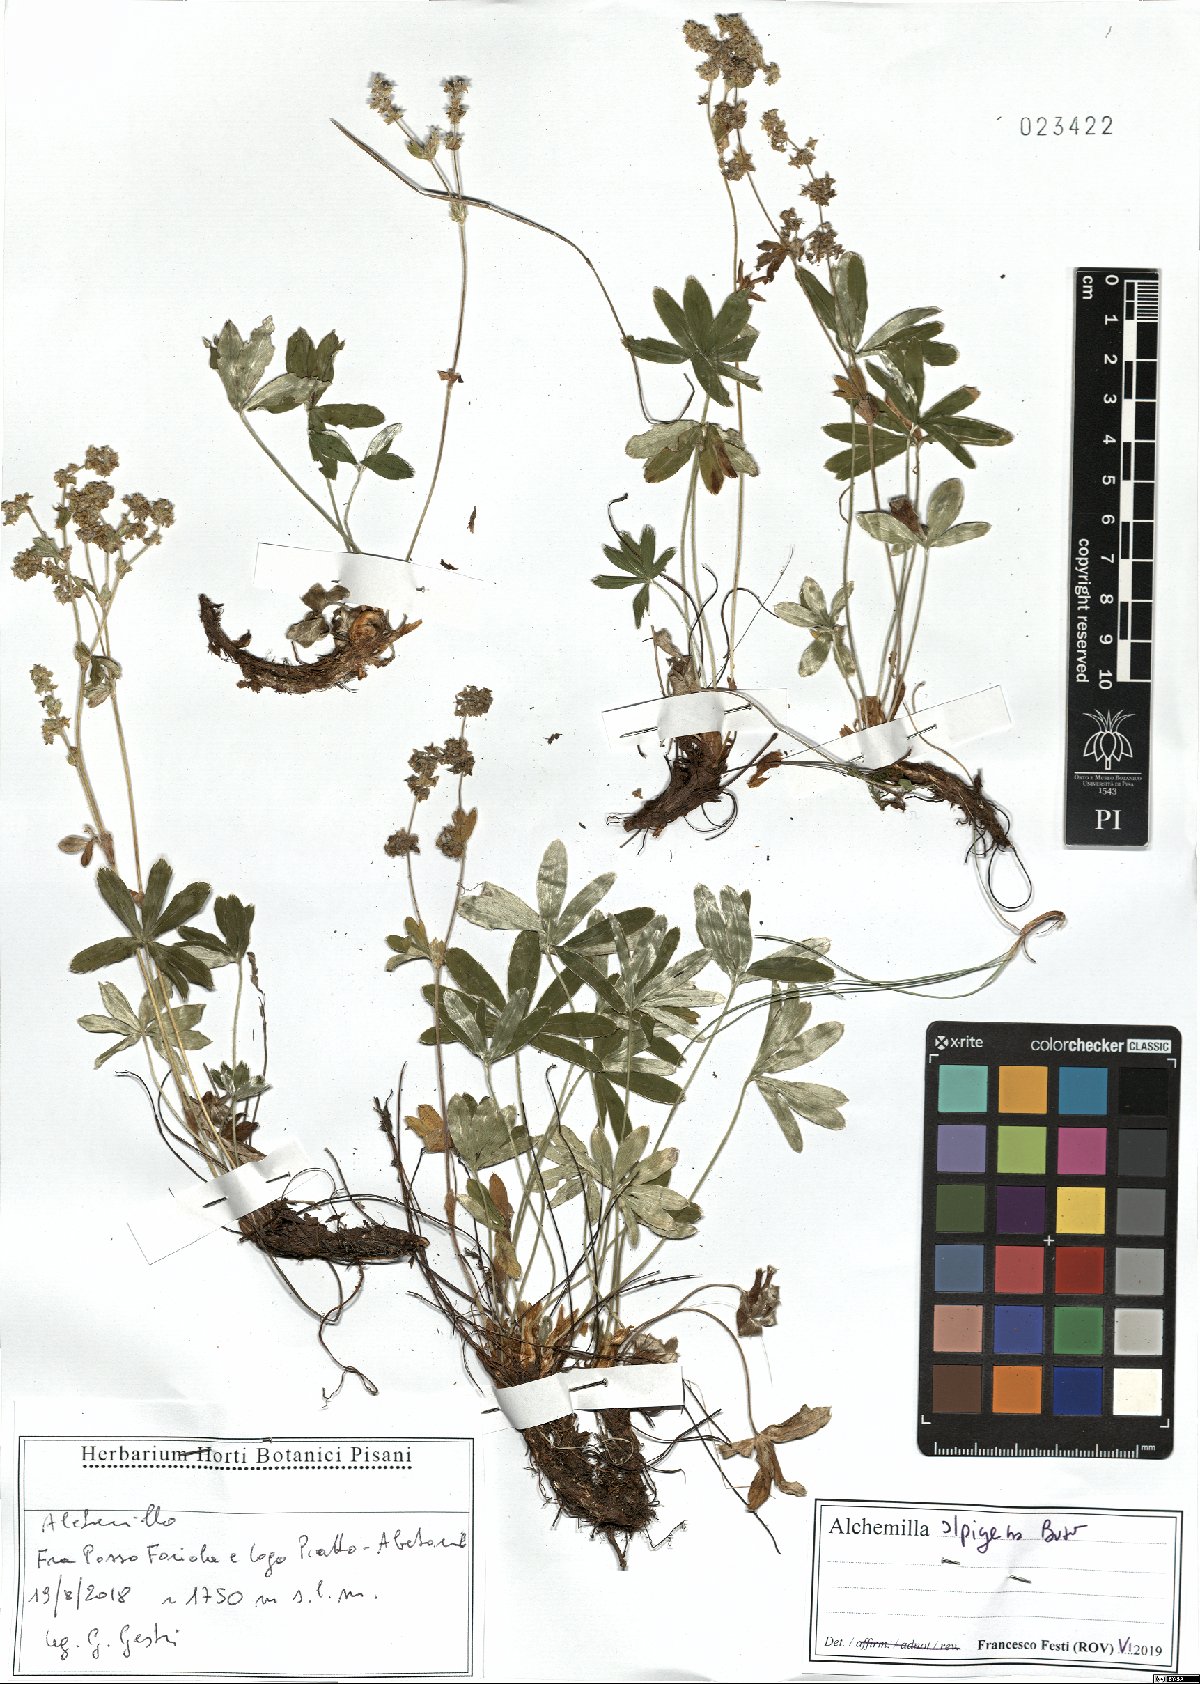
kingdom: Plantae
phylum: Tracheophyta
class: Magnoliopsida
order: Rosales
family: Rosaceae
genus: Alchemilla
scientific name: Alchemilla alpigena
